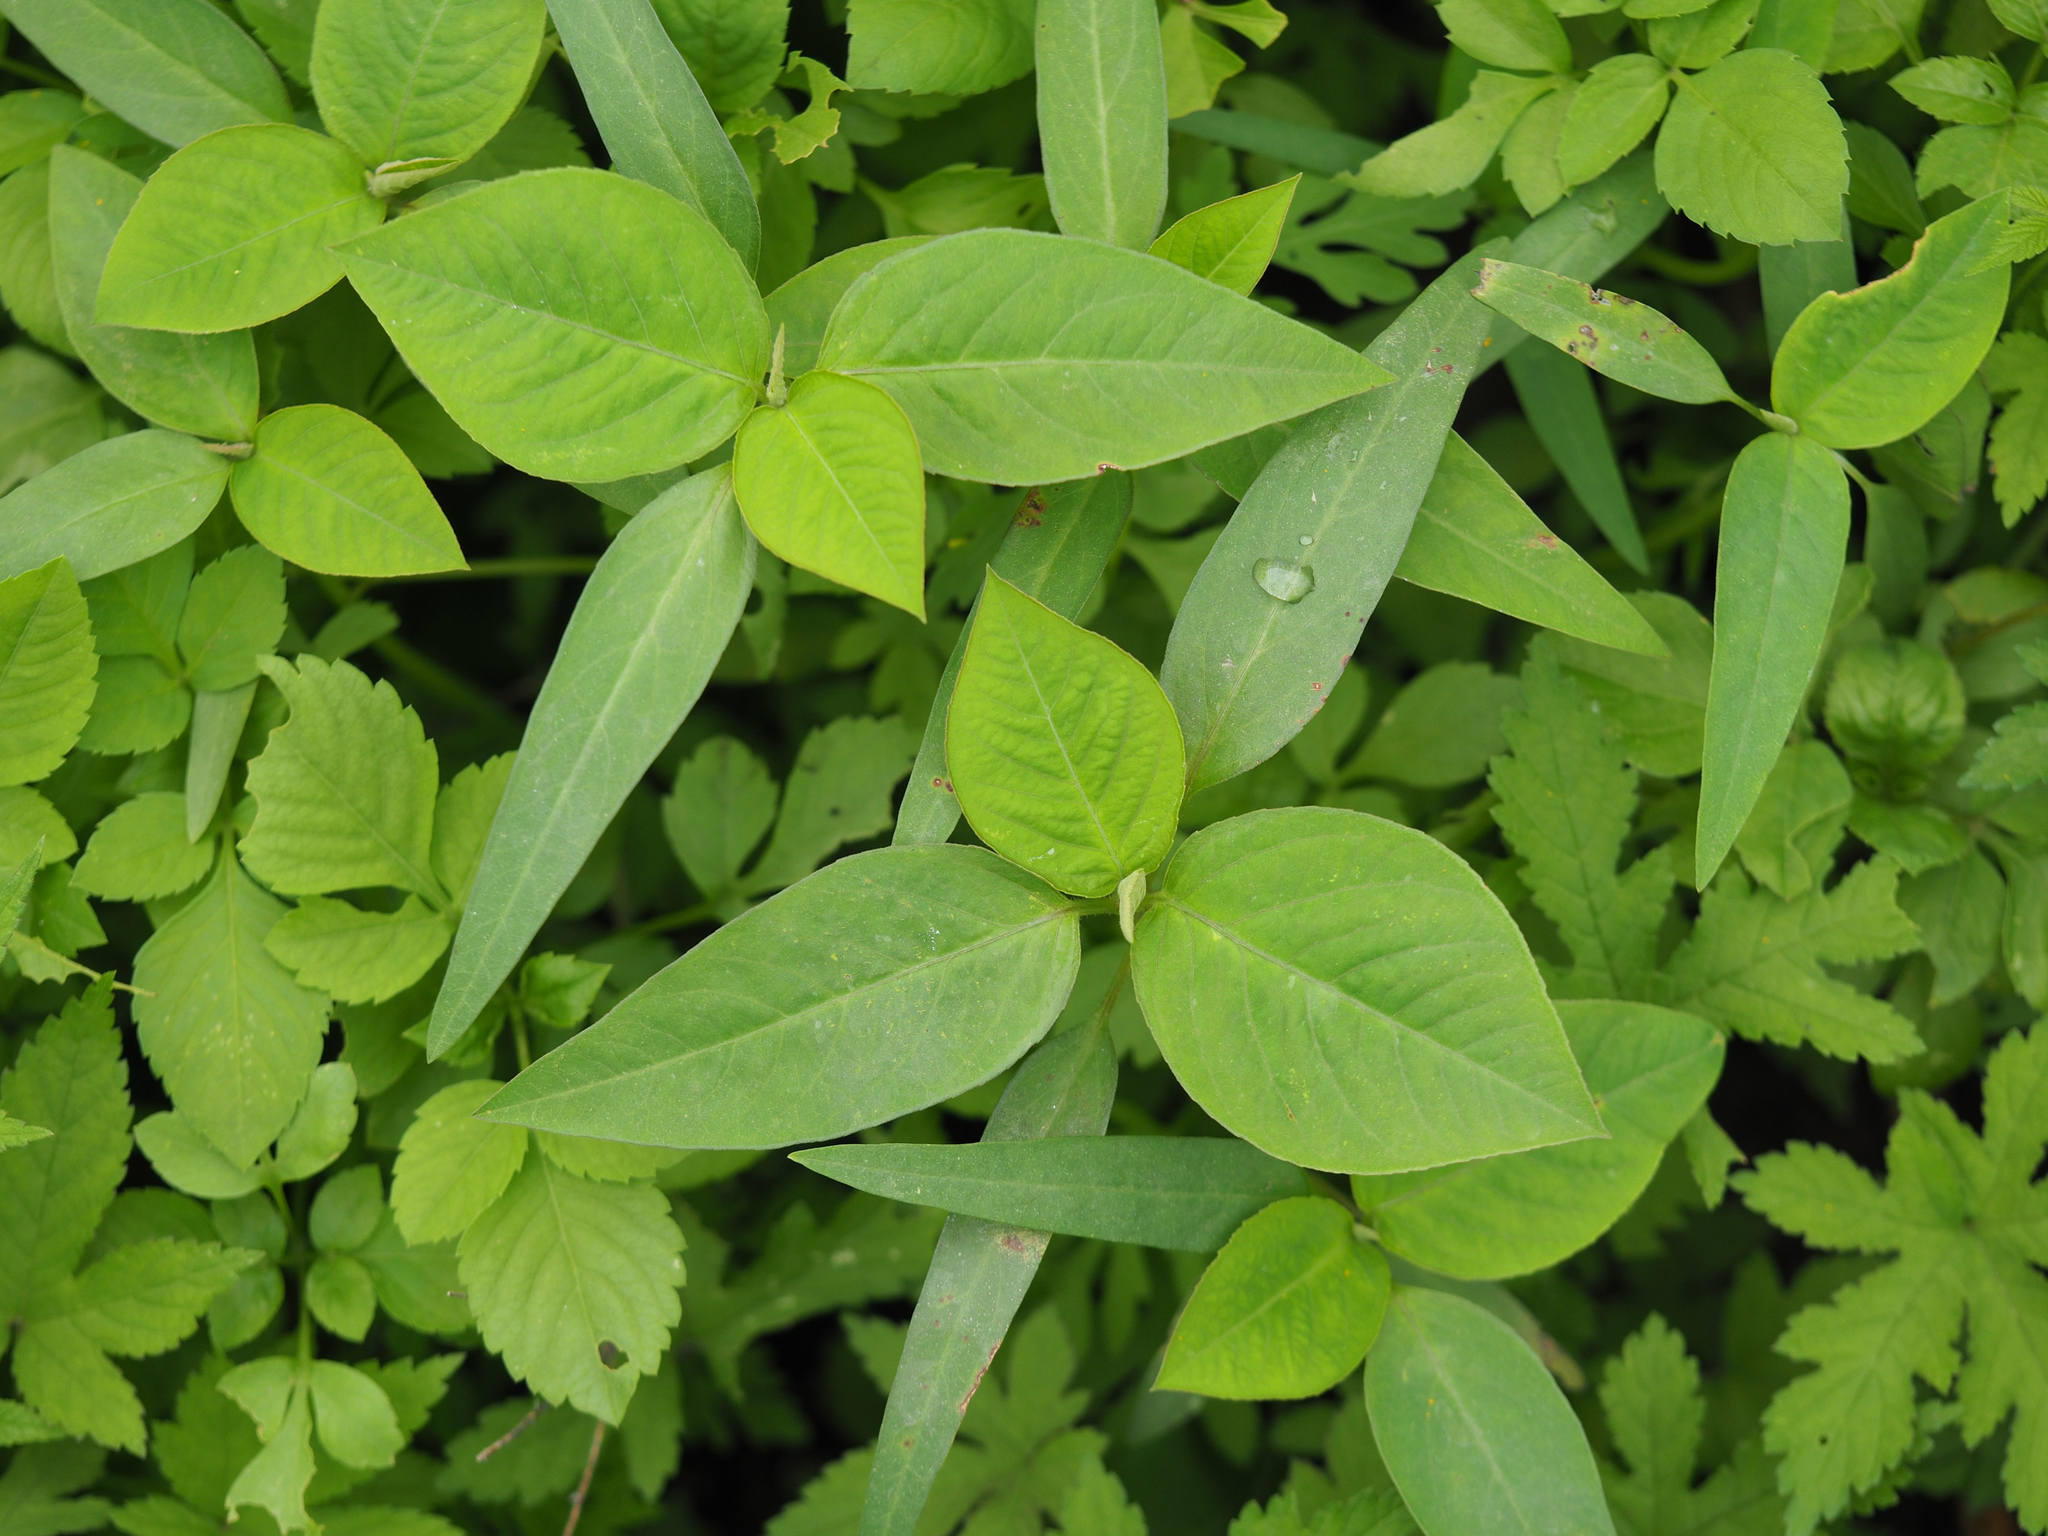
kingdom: Plantae
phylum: Tracheophyta
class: Magnoliopsida
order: Malpighiales
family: Euphorbiaceae
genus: Euphorbia
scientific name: Euphorbia heterophylla
